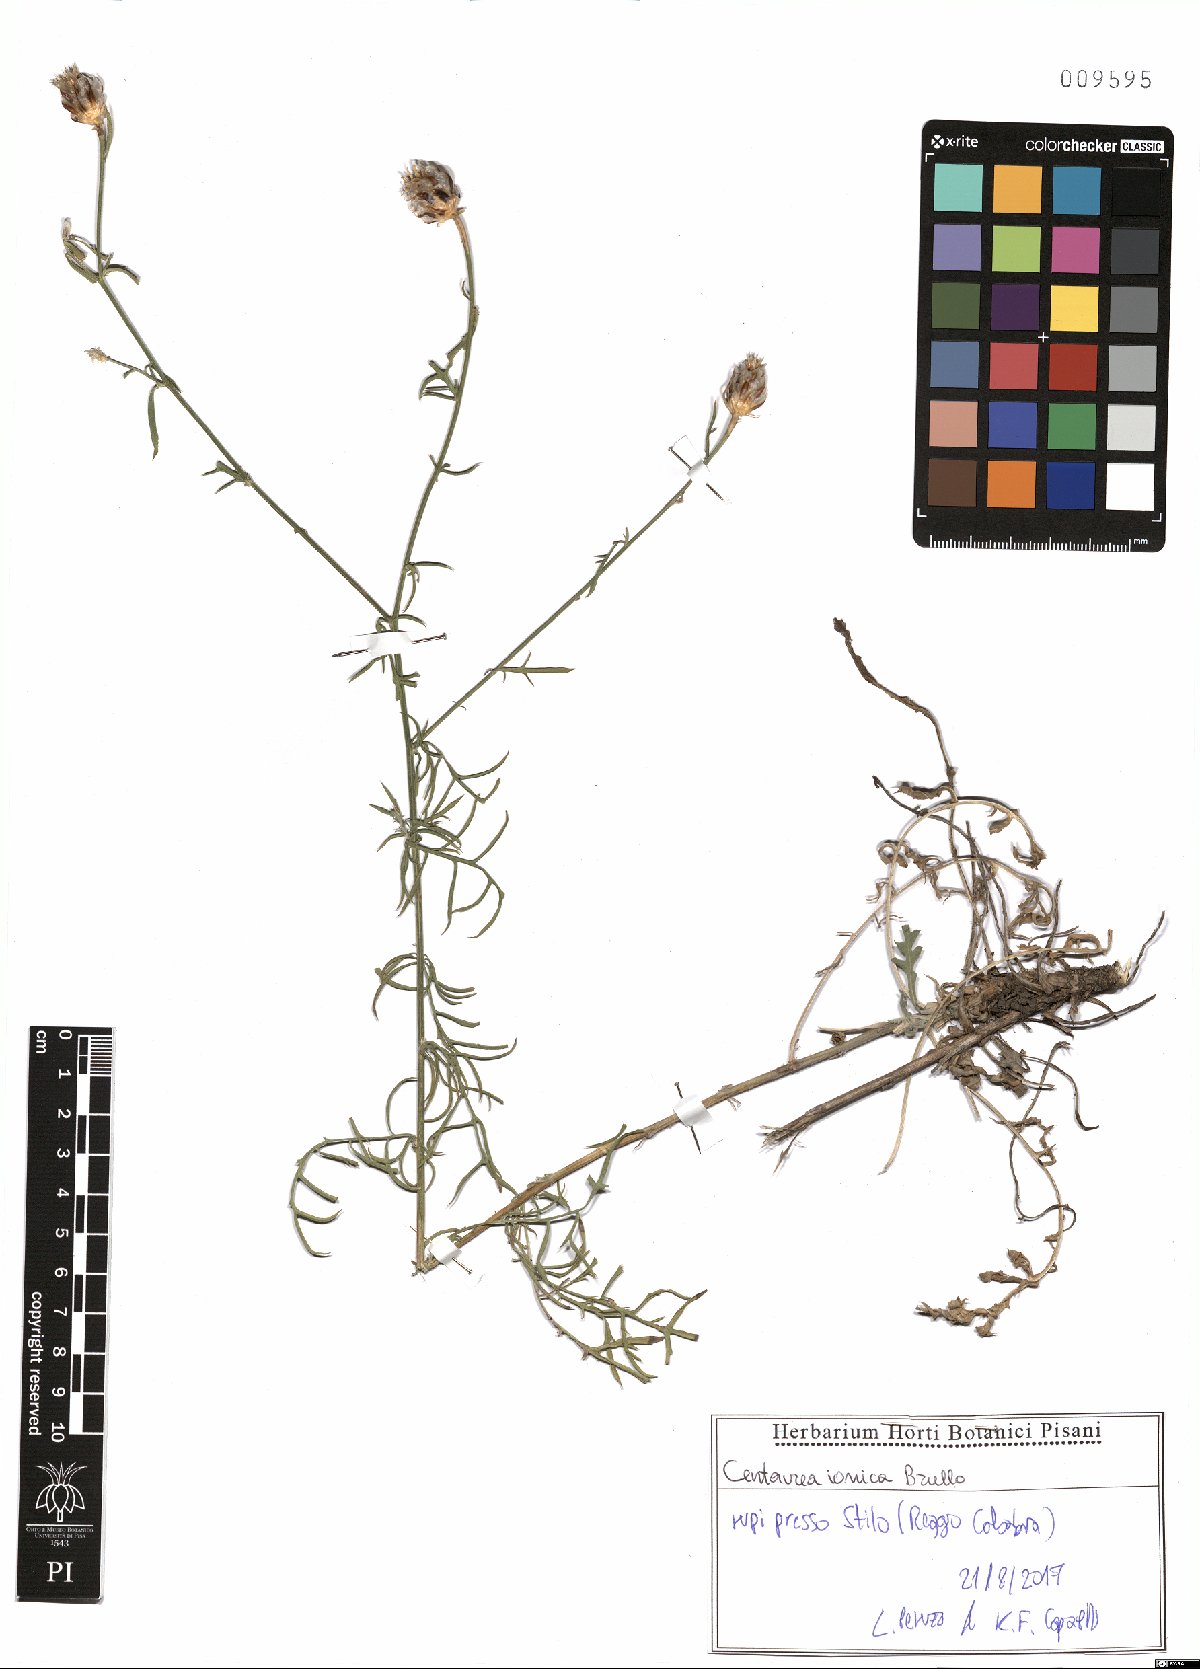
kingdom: Plantae
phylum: Tracheophyta
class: Magnoliopsida
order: Asterales
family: Asteraceae
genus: Centaurea
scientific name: Centaurea ionica
